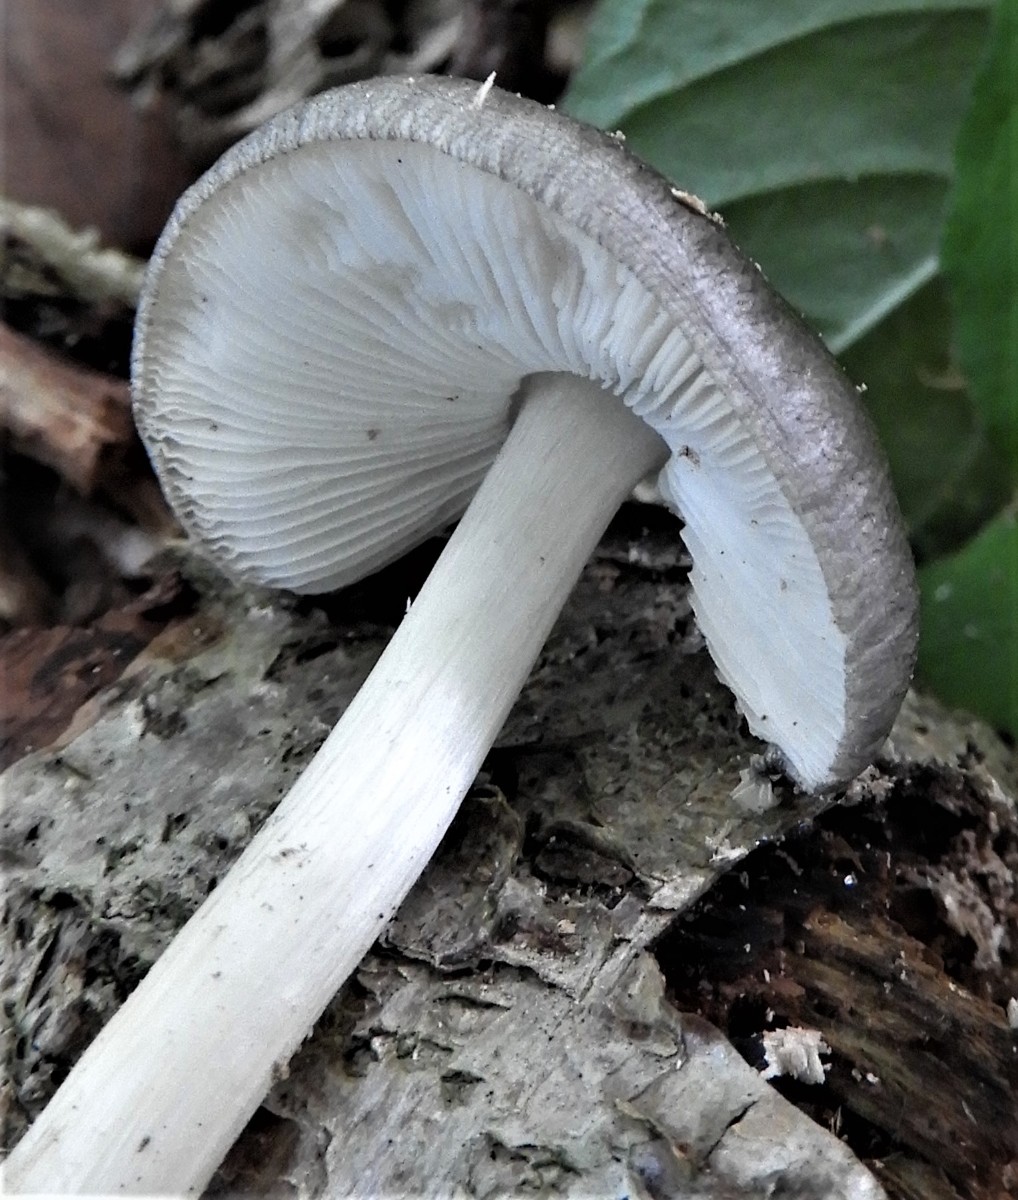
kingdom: Fungi
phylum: Basidiomycota
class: Agaricomycetes
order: Agaricales
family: Pluteaceae
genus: Pluteus
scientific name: Pluteus salicinus
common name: stiv skærmhat
